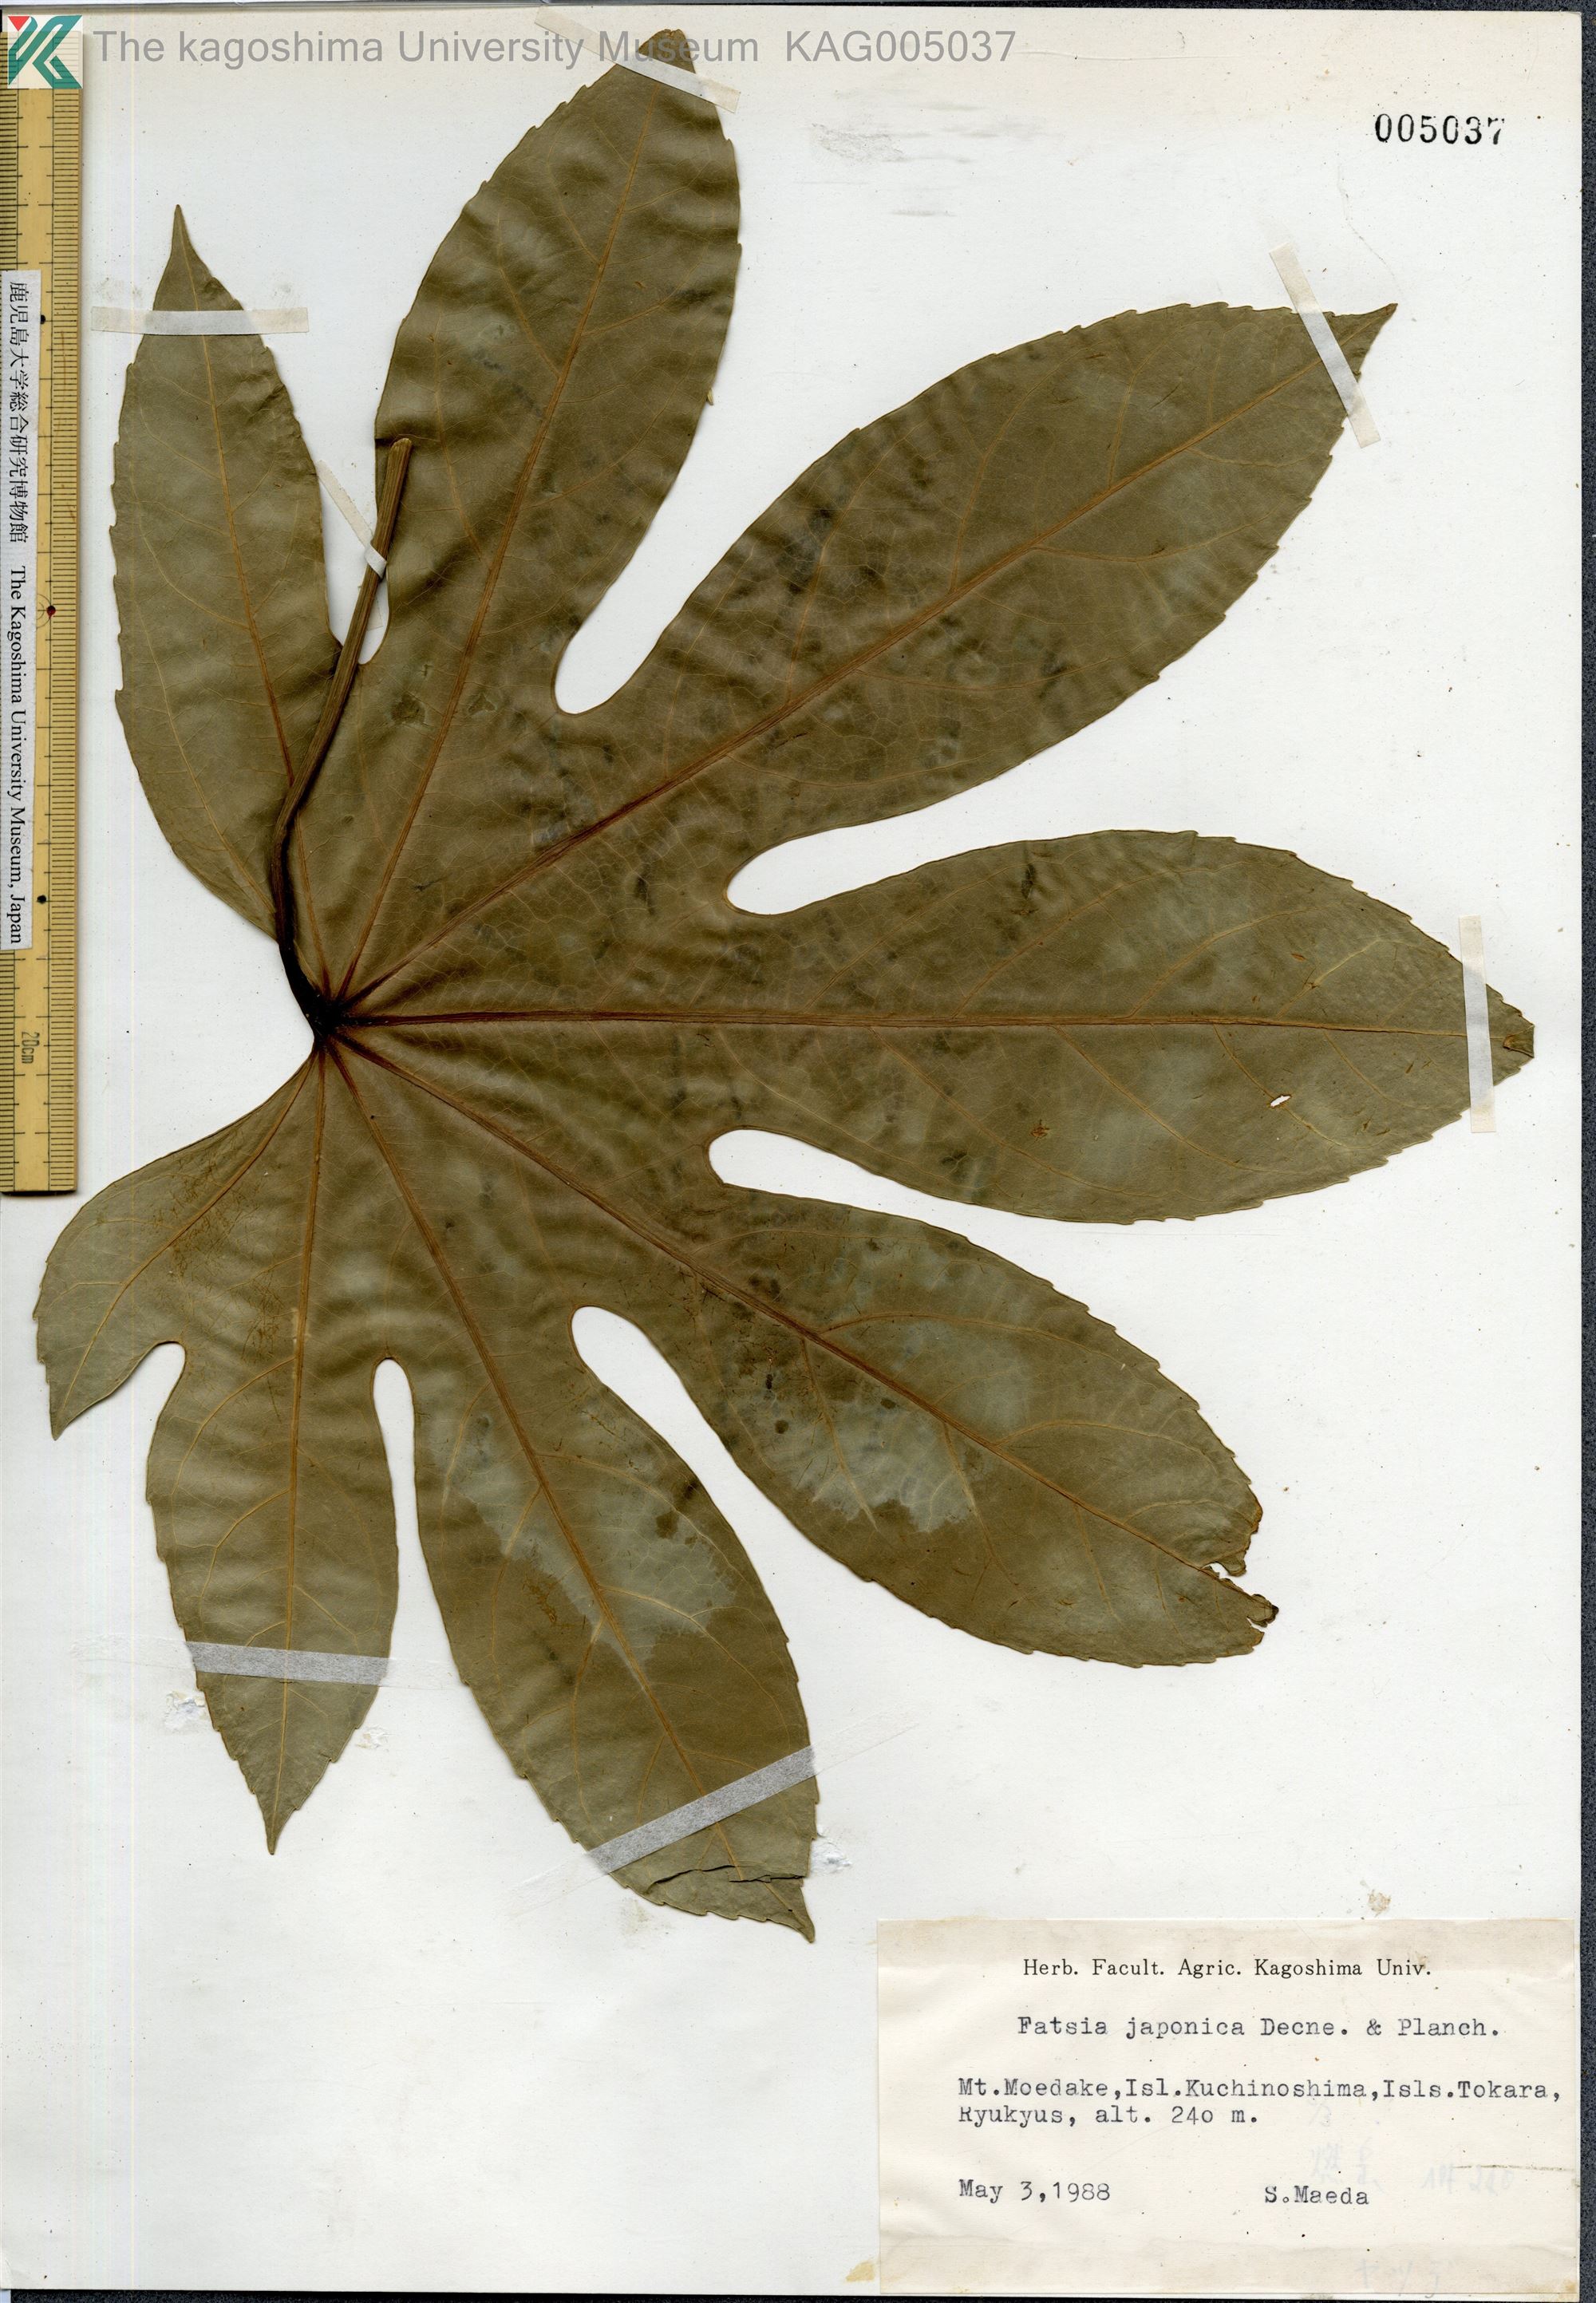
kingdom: Plantae
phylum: Tracheophyta
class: Magnoliopsida
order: Apiales
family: Araliaceae
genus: Fatsia
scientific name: Fatsia japonica
